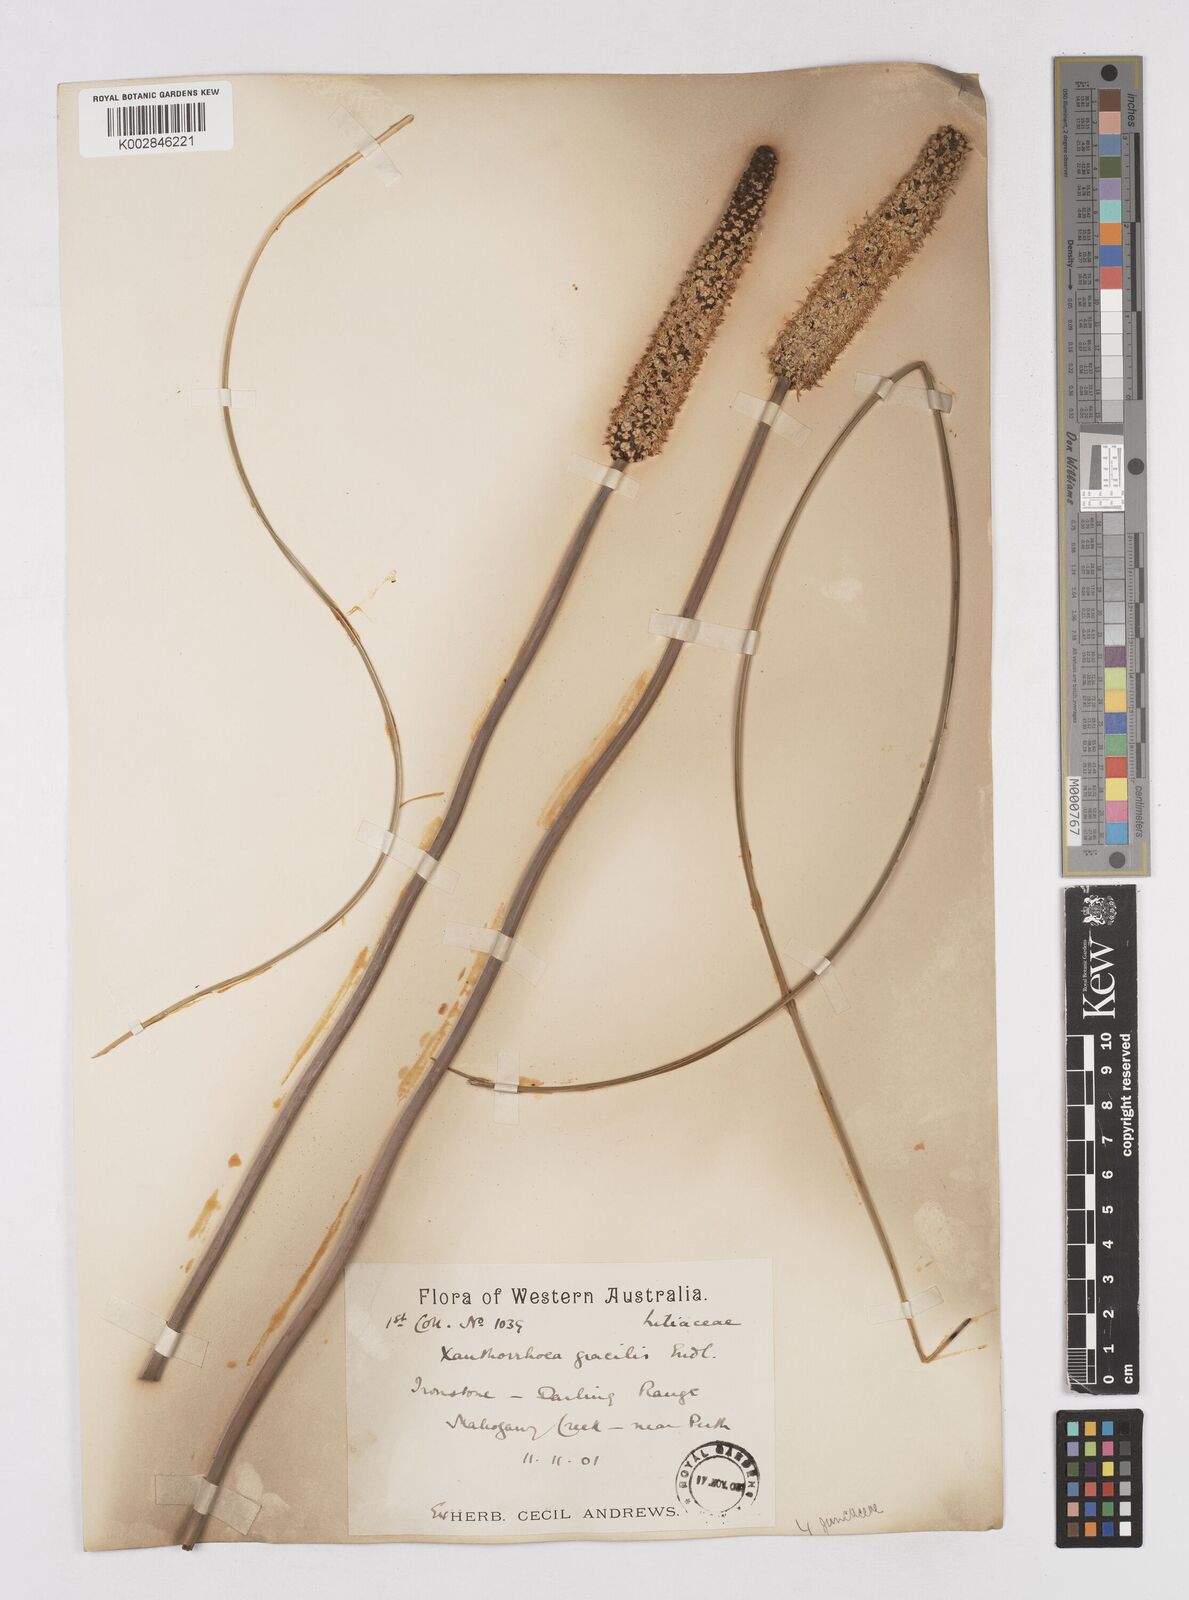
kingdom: Plantae
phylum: Tracheophyta
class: Liliopsida
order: Asparagales
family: Asphodelaceae
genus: Xanthorrhoea
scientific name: Xanthorrhoea gracilis
